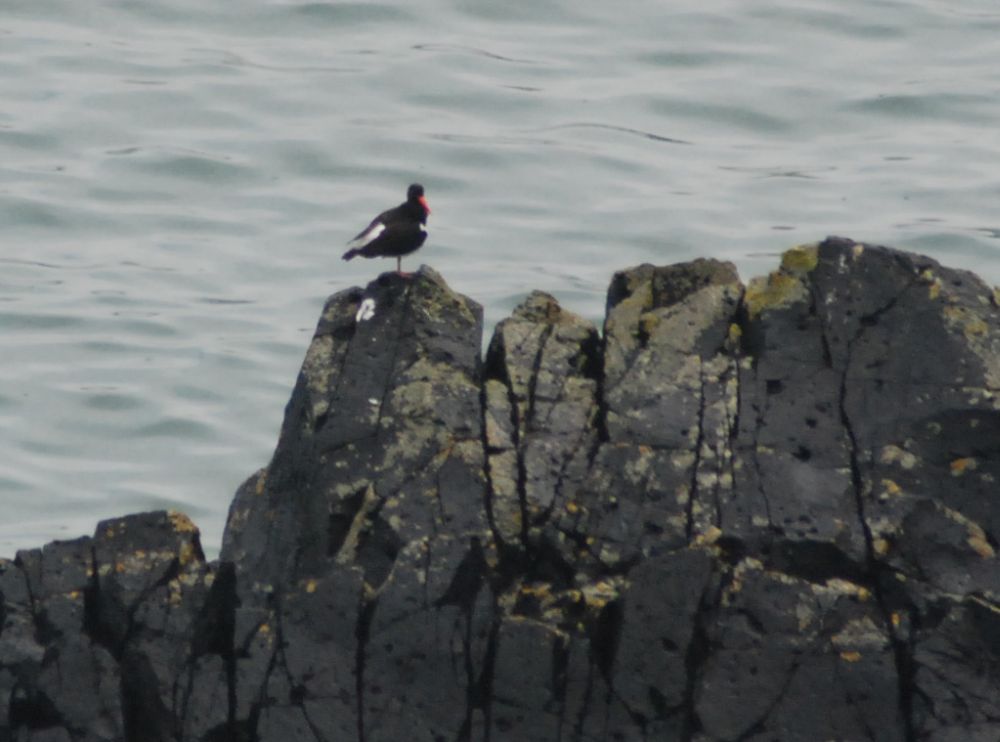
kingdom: Animalia
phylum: Chordata
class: Aves
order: Charadriiformes
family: Haematopodidae
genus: Haematopus
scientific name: Haematopus ostralegus
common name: Eurasian oystercatcher
